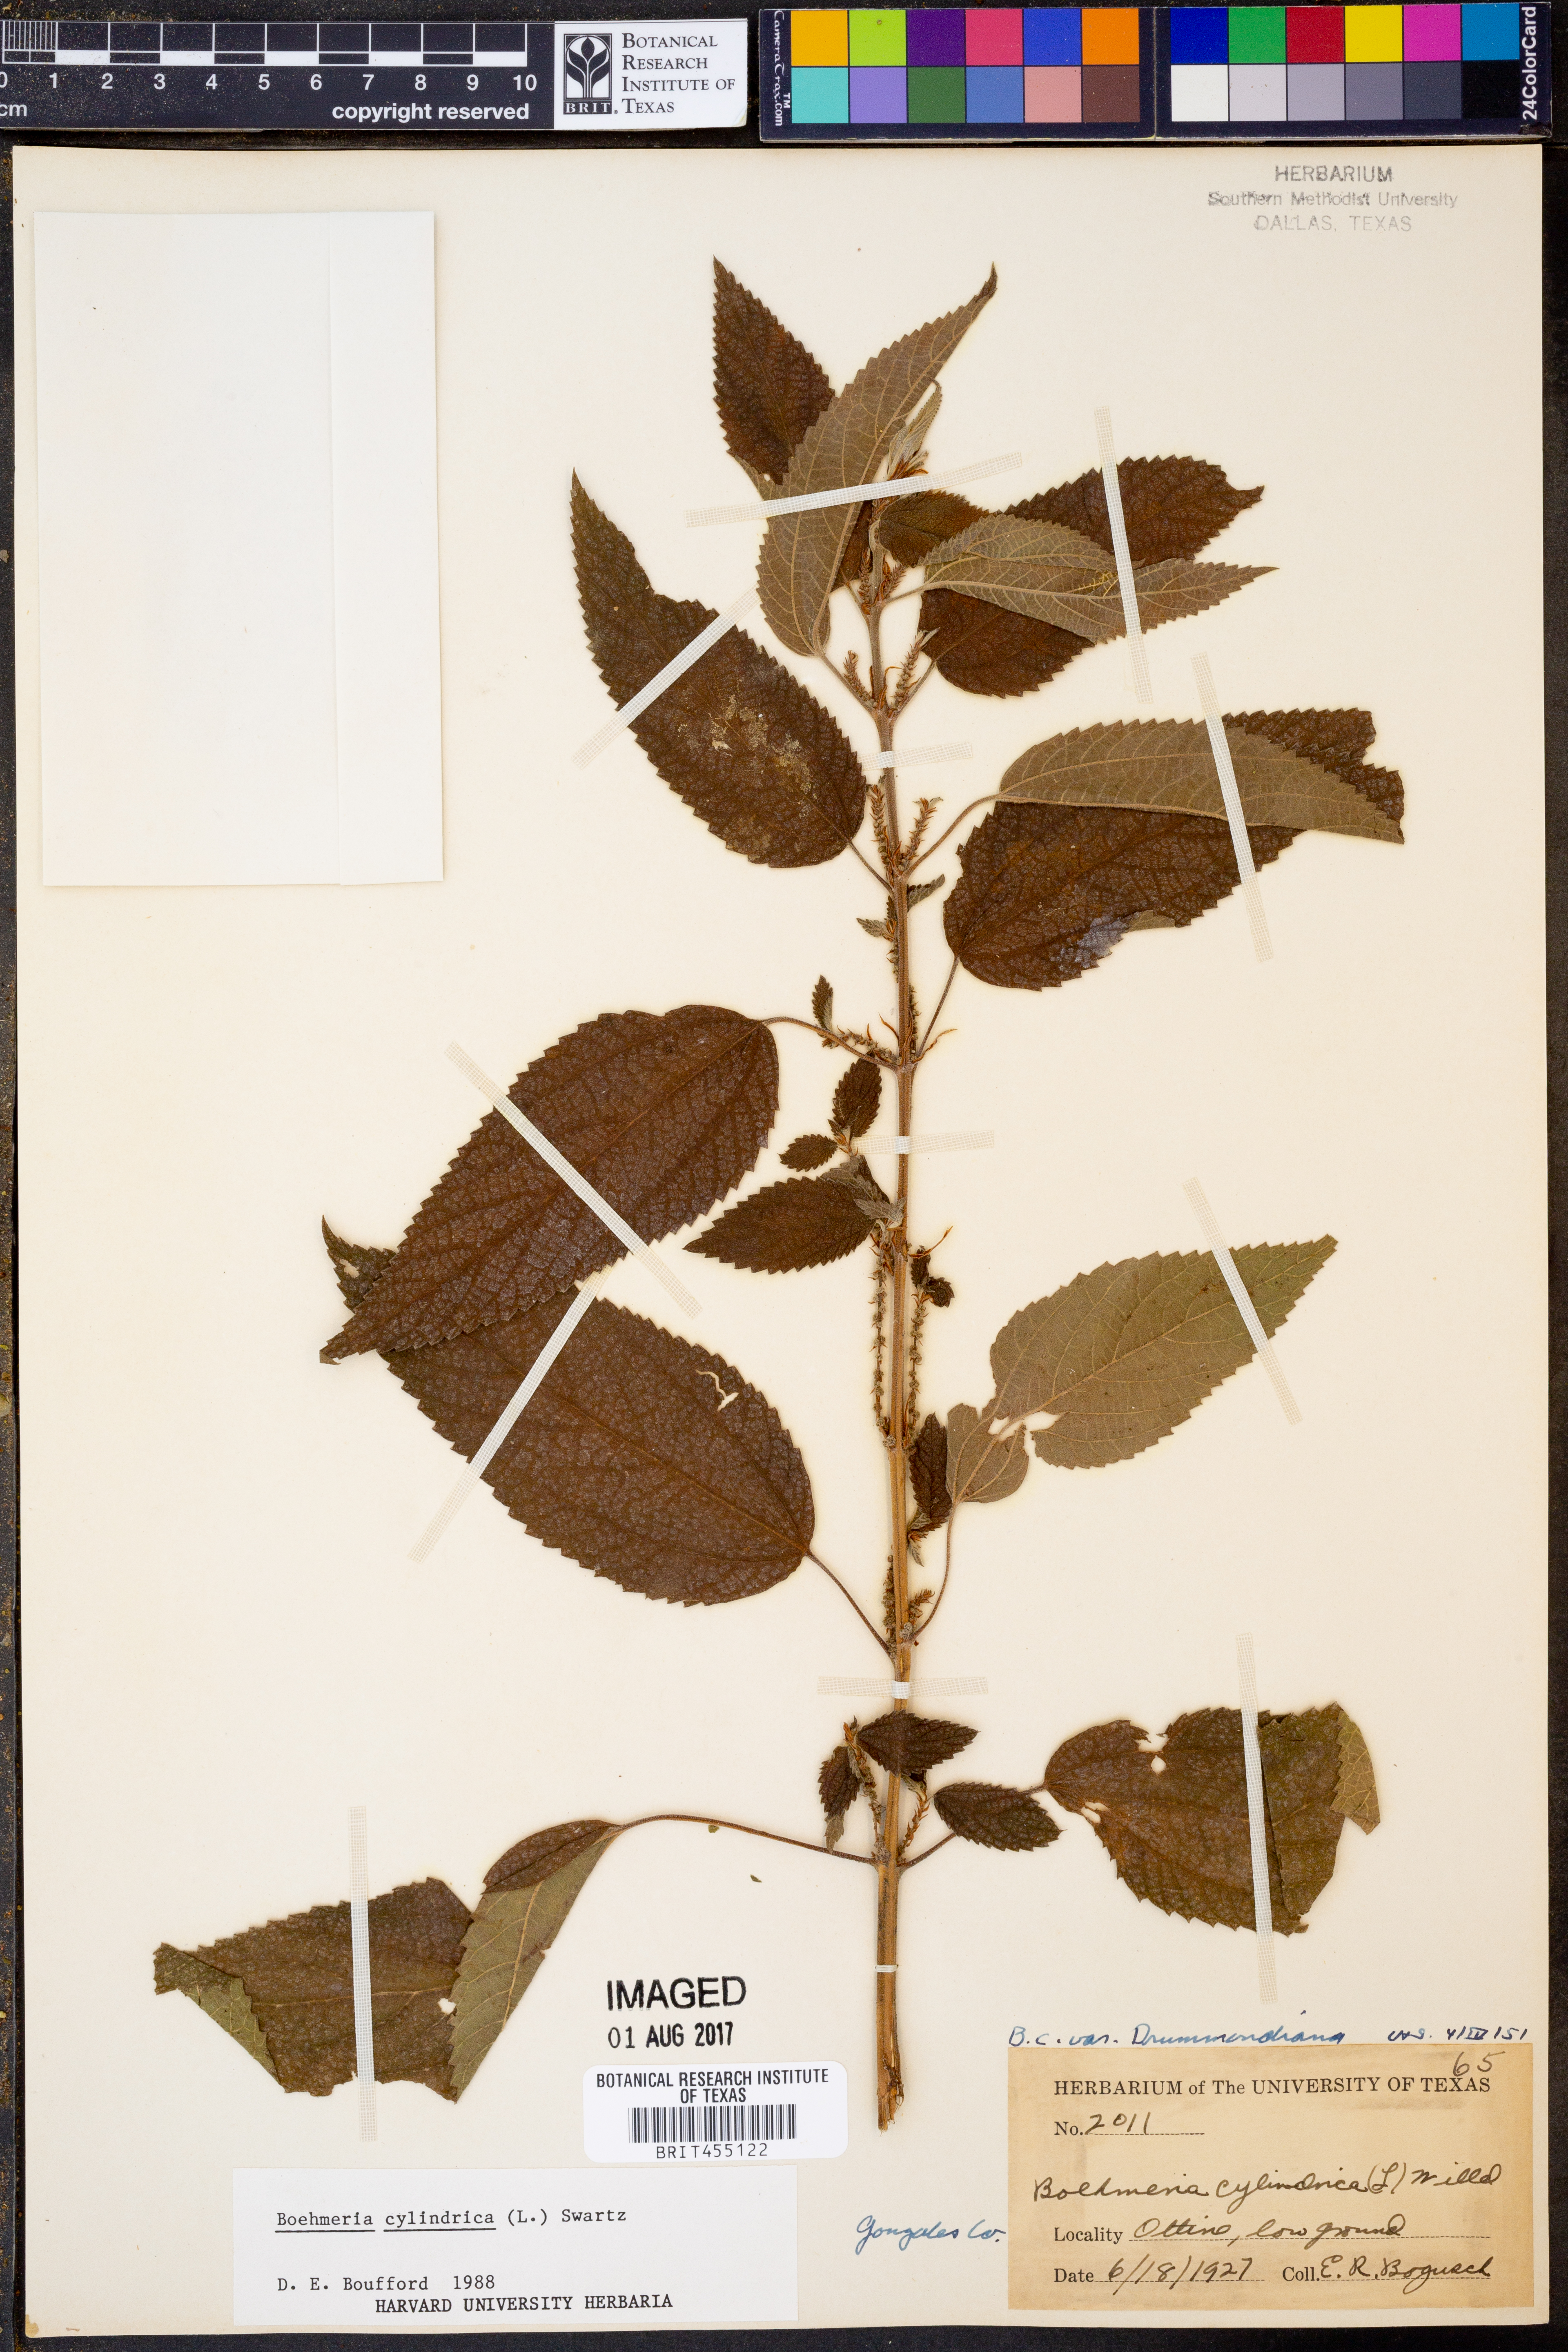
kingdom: Plantae
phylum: Tracheophyta
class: Magnoliopsida
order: Rosales
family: Urticaceae
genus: Boehmeria
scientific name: Boehmeria cylindrica
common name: Bog-hemp
